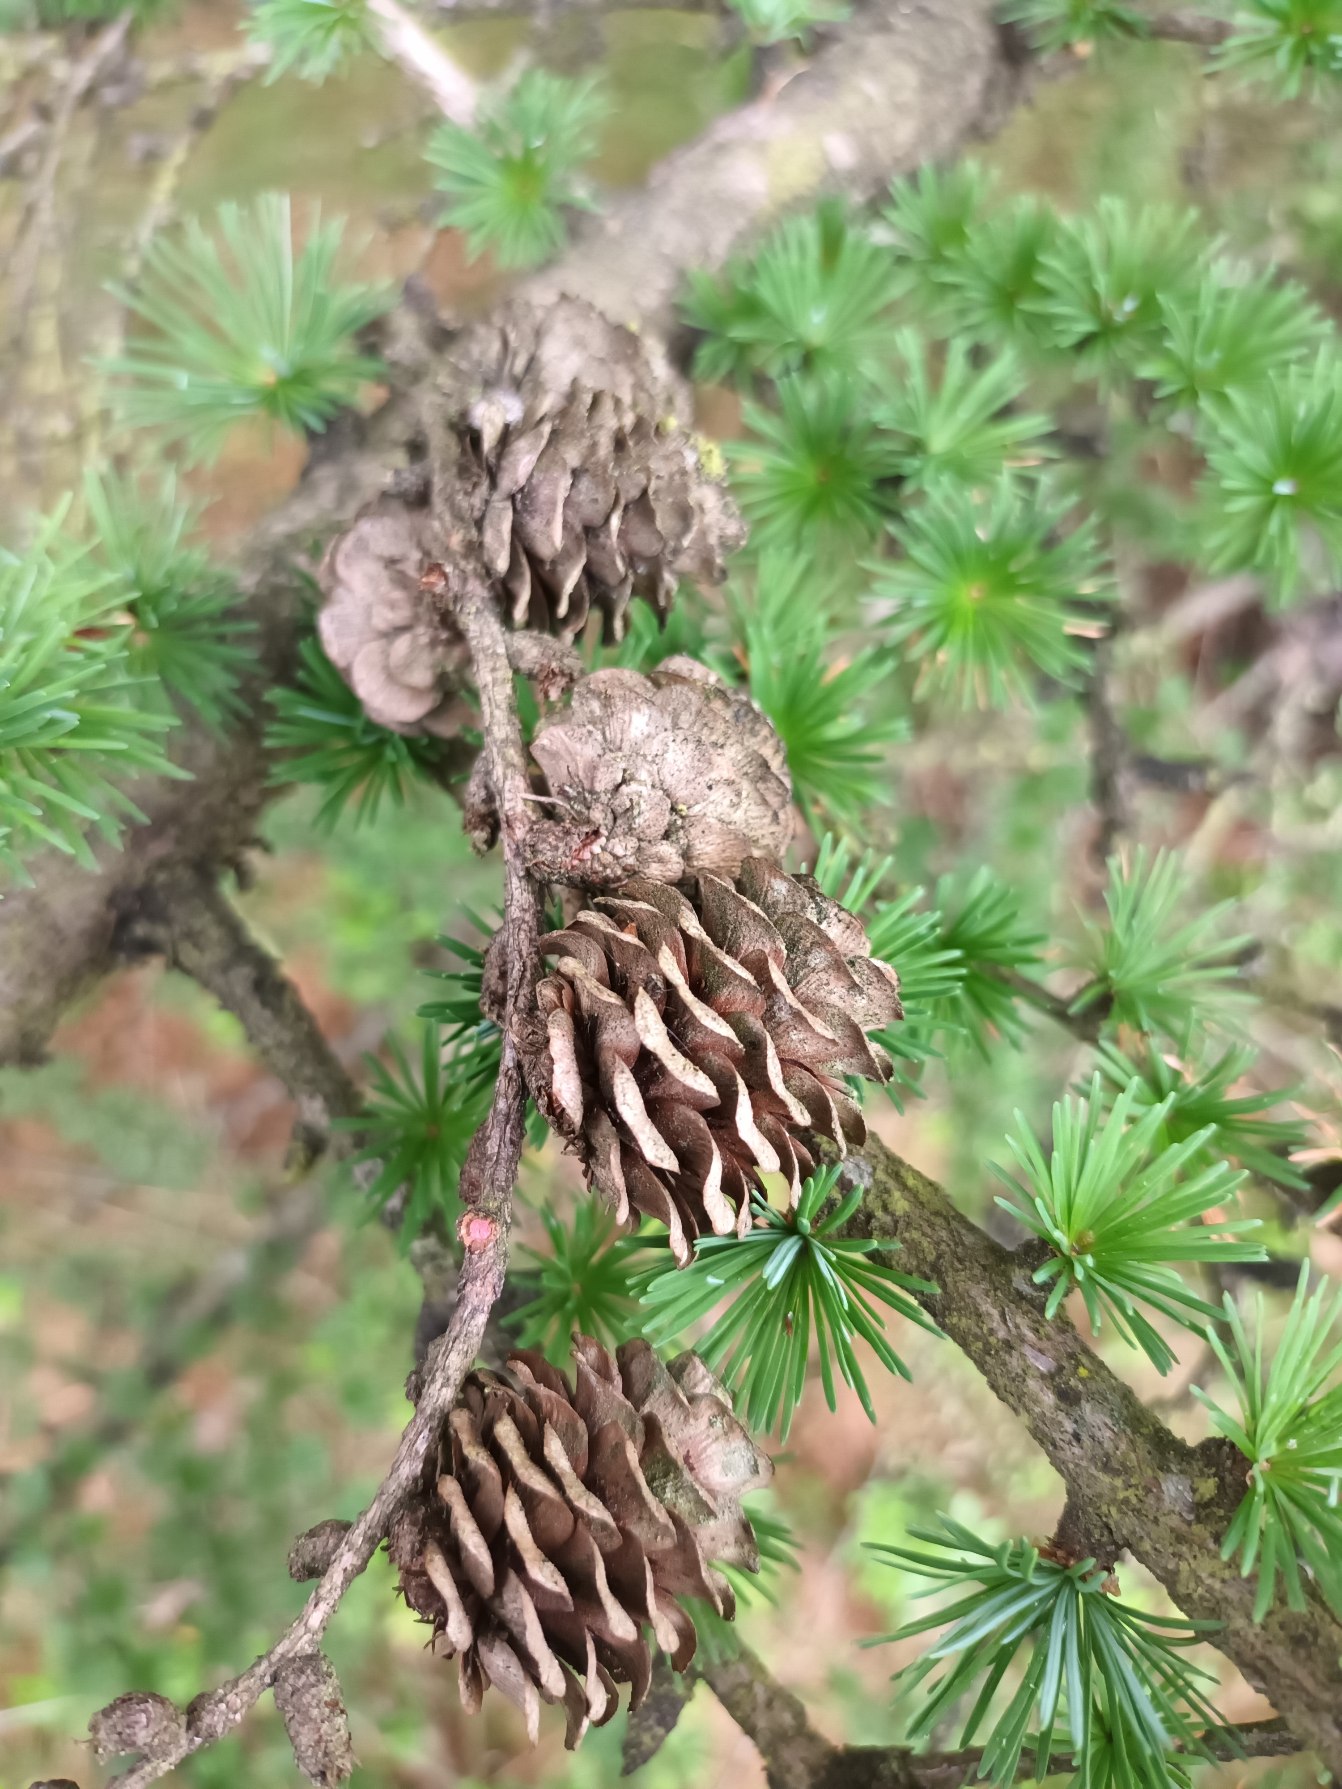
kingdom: Plantae
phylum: Tracheophyta
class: Pinopsida
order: Pinales
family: Pinaceae
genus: Larix
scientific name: Larix kaempferi
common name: Japansk lærk
